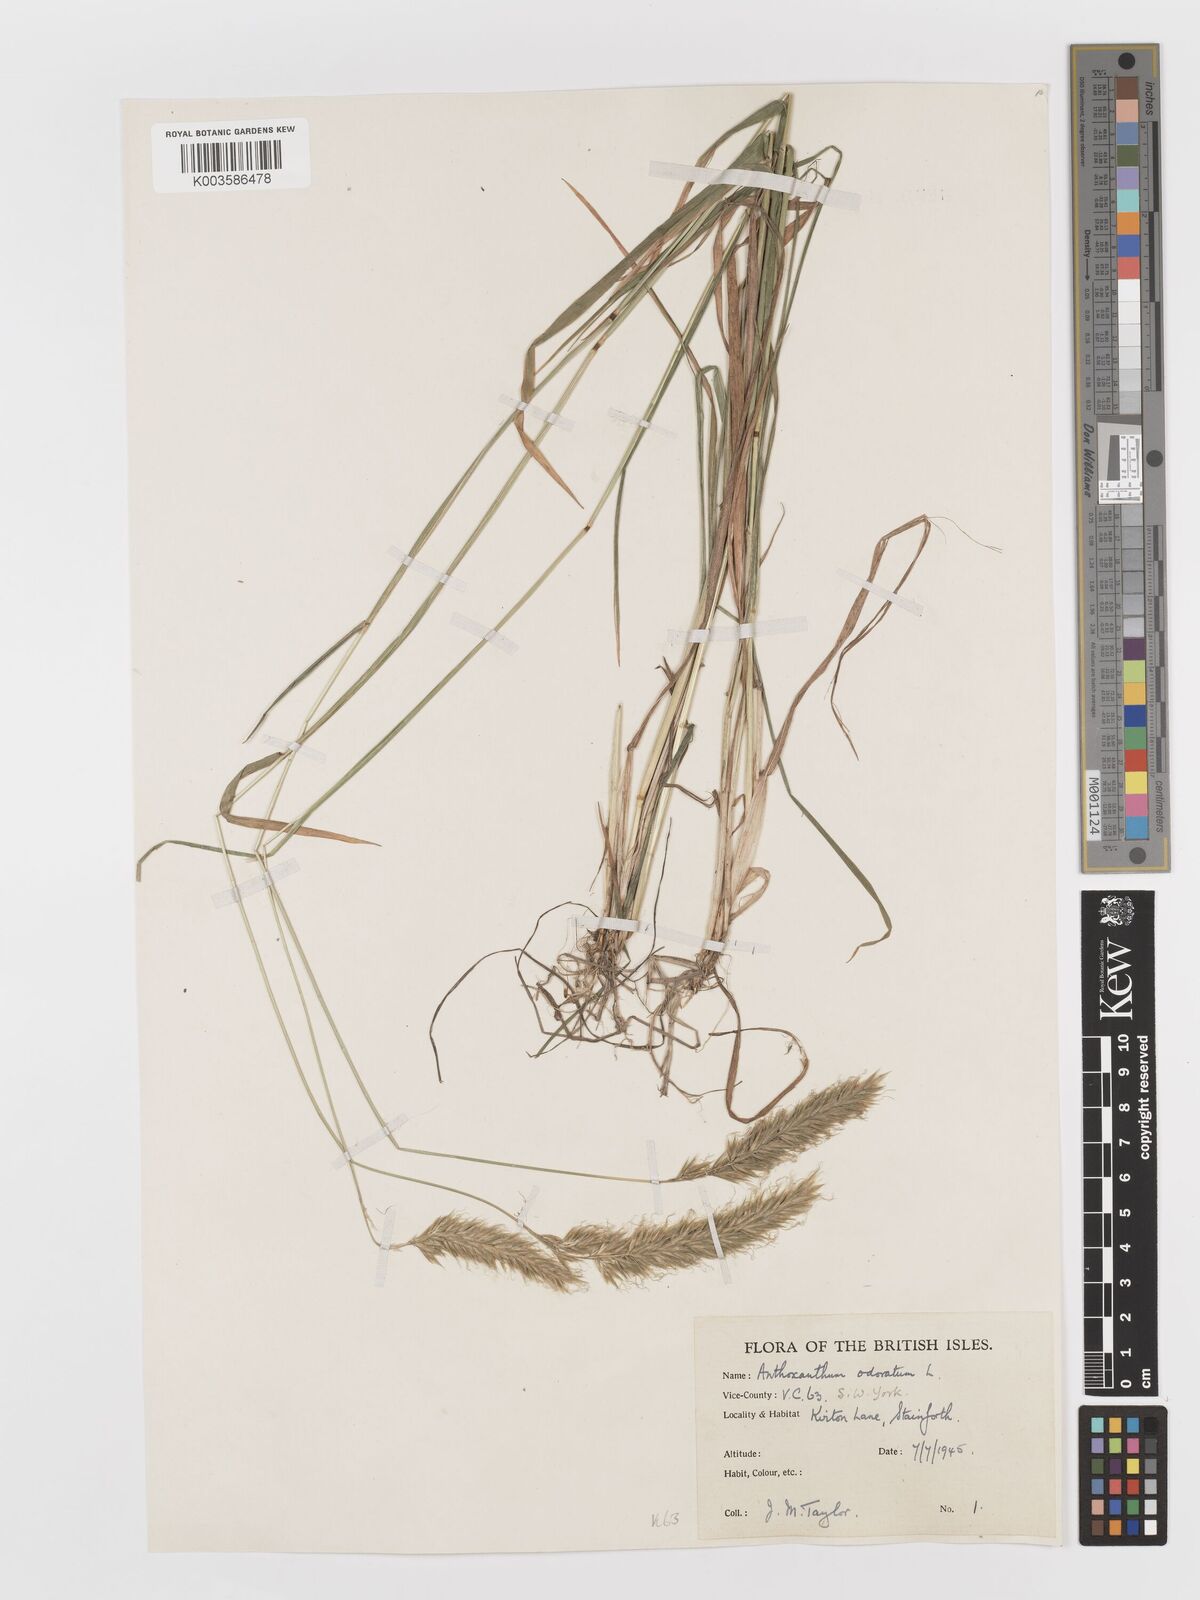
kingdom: Plantae
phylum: Tracheophyta
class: Liliopsida
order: Poales
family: Poaceae
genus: Anthoxanthum
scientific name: Anthoxanthum odoratum
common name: Sweet vernalgrass
